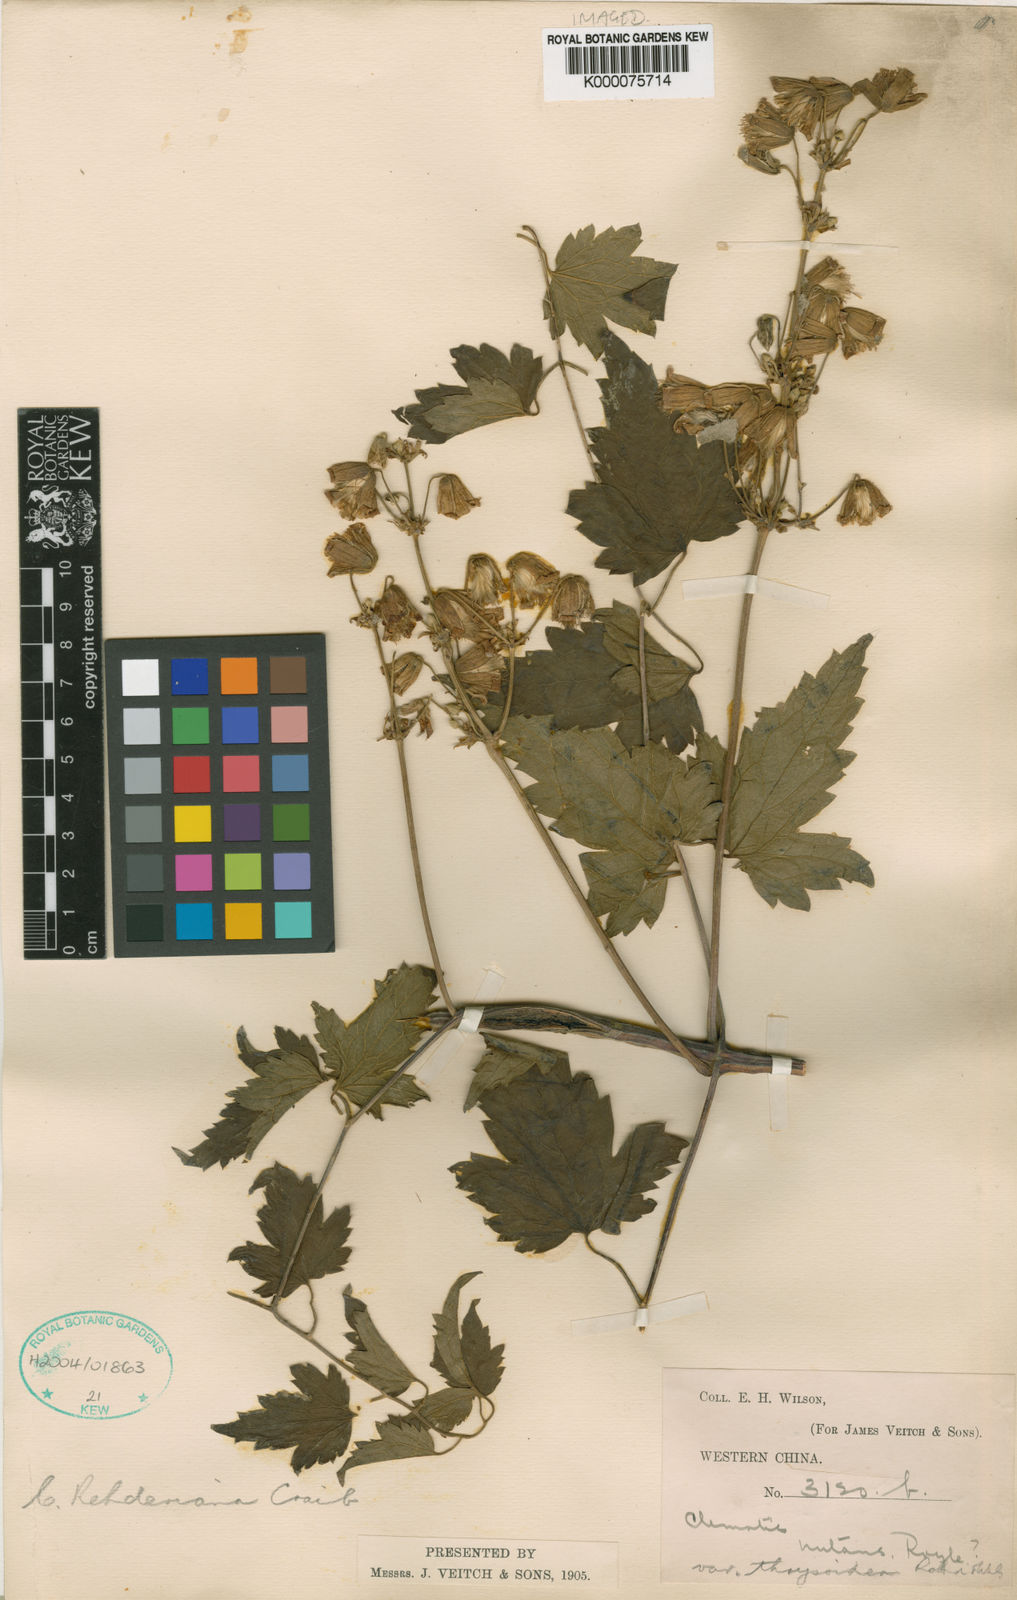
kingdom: Plantae
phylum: Tracheophyta
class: Magnoliopsida
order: Ranunculales
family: Ranunculaceae
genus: Clematis
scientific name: Clematis rehderiana
